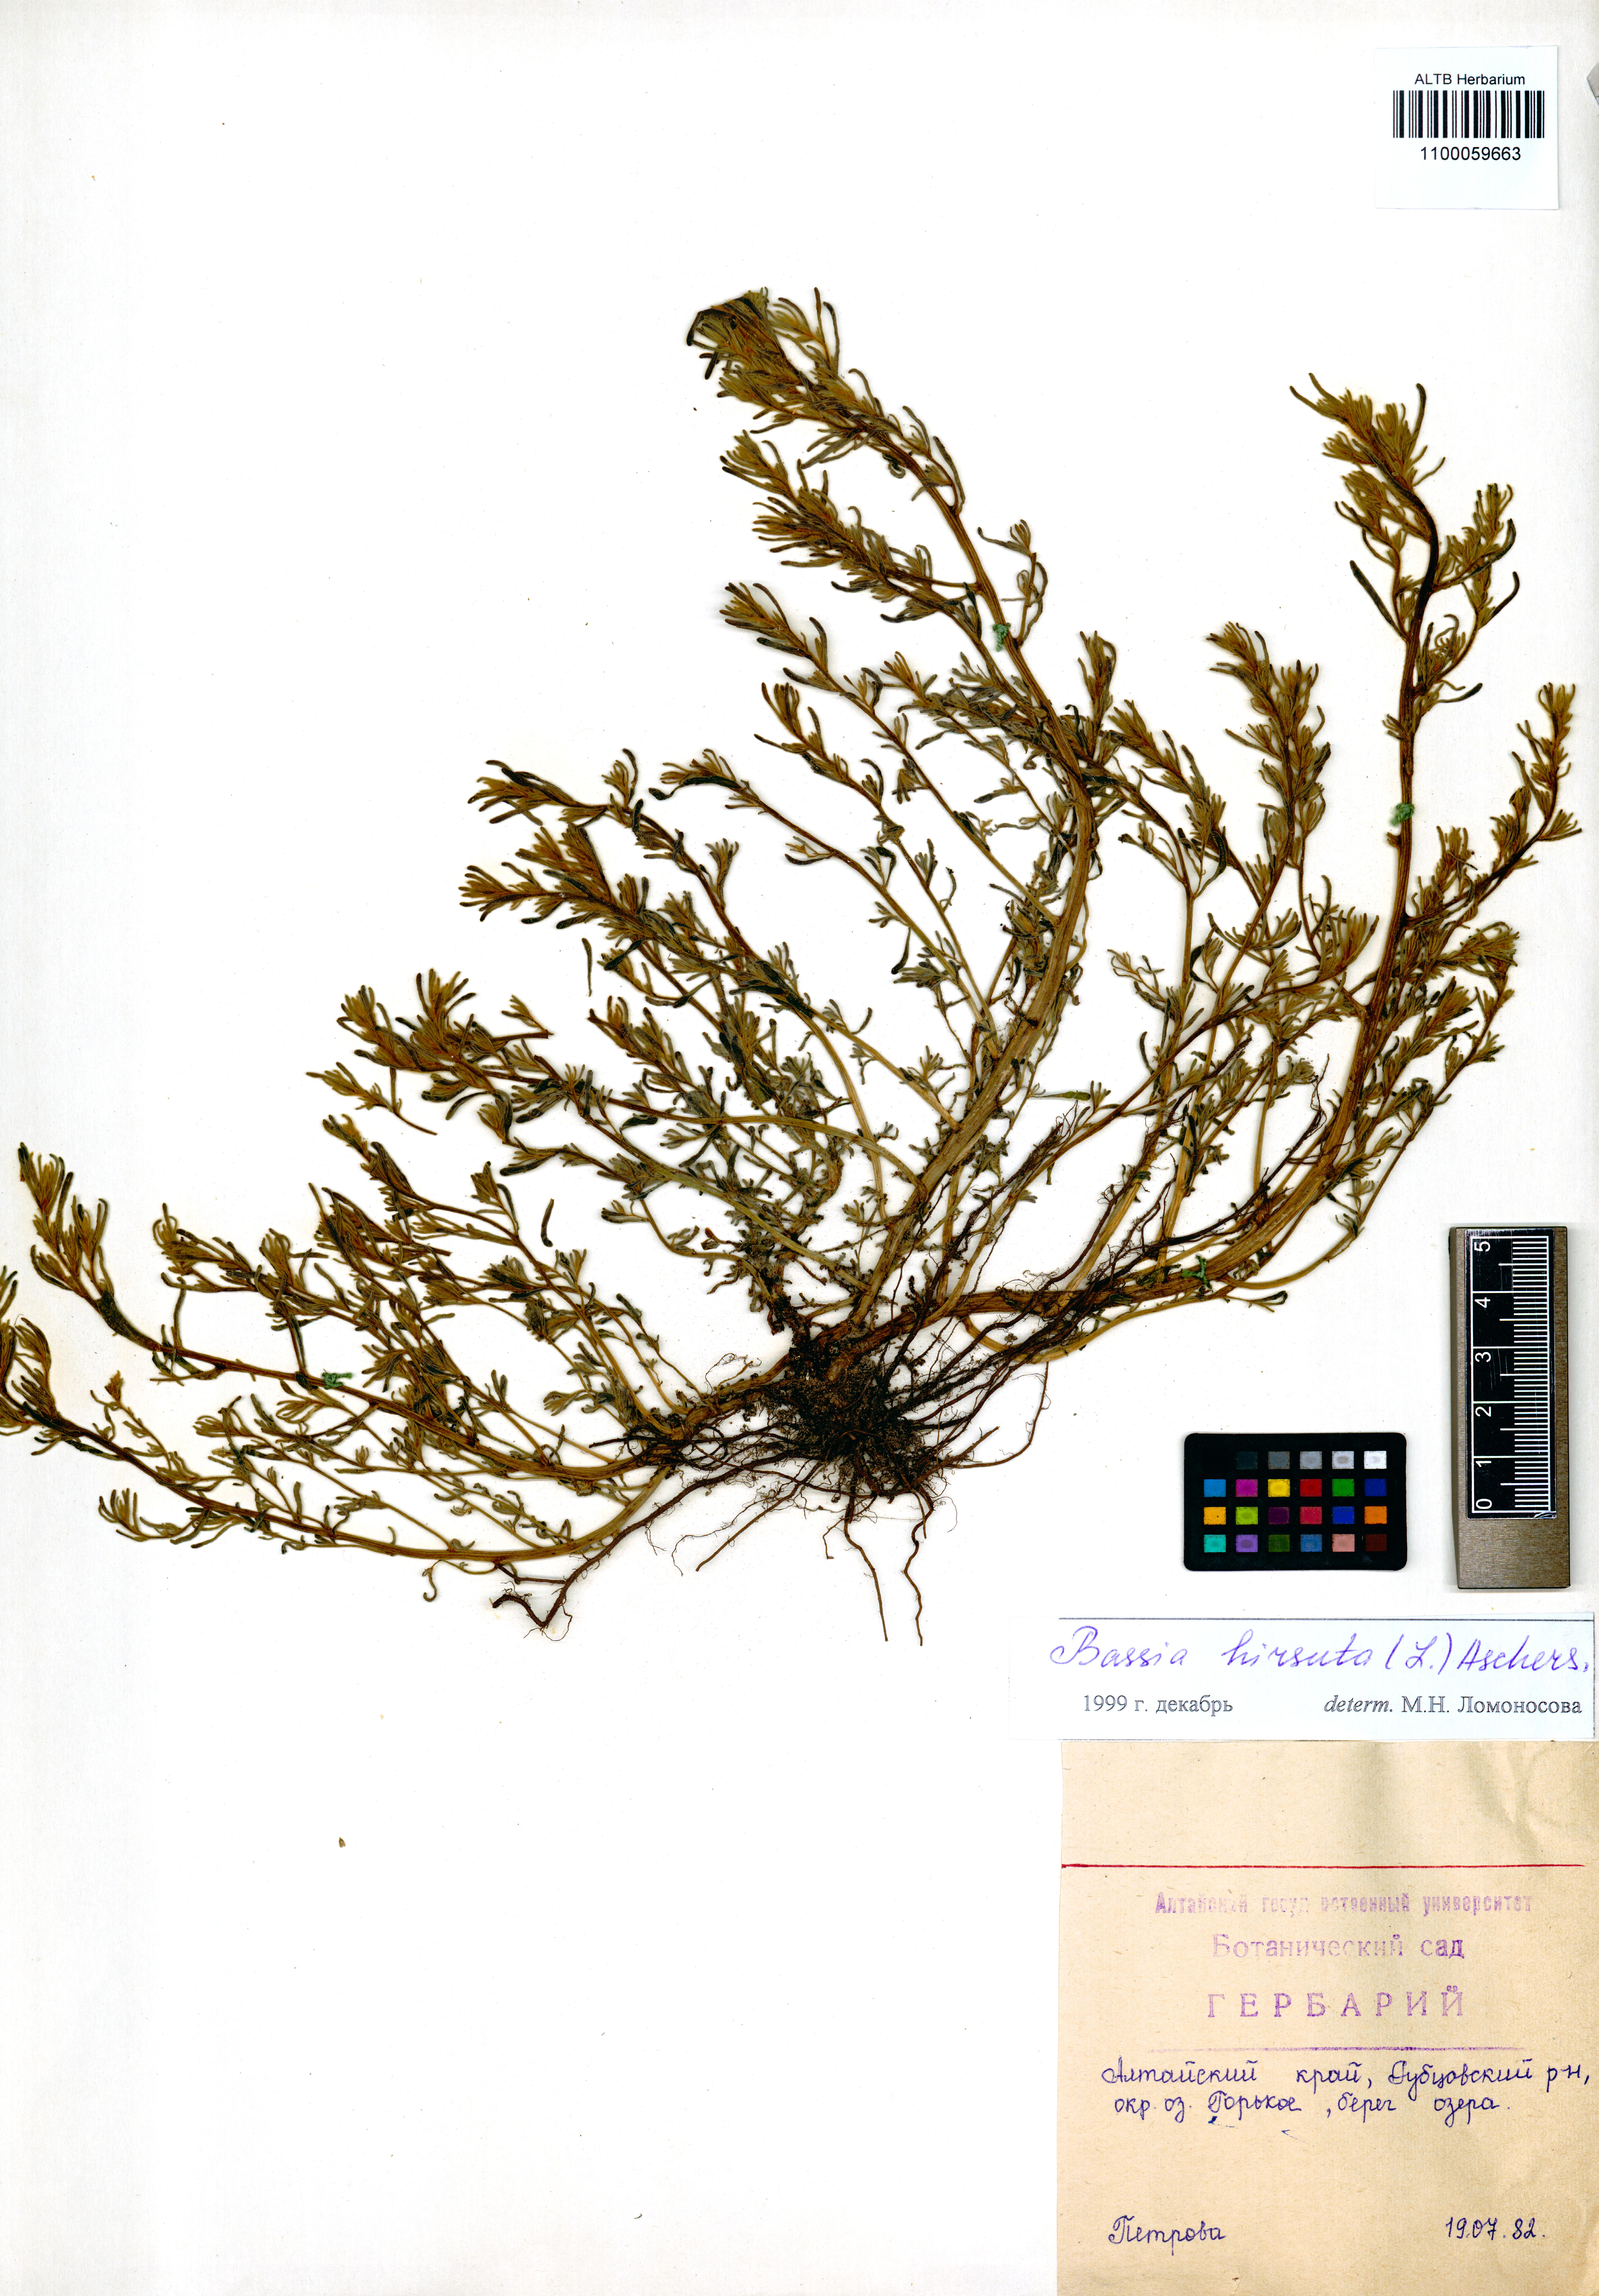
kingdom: Plantae
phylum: Tracheophyta
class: Magnoliopsida
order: Caryophyllales
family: Amaranthaceae
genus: Spirobassia
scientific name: Spirobassia hirsuta
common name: Hairy smotherweed
